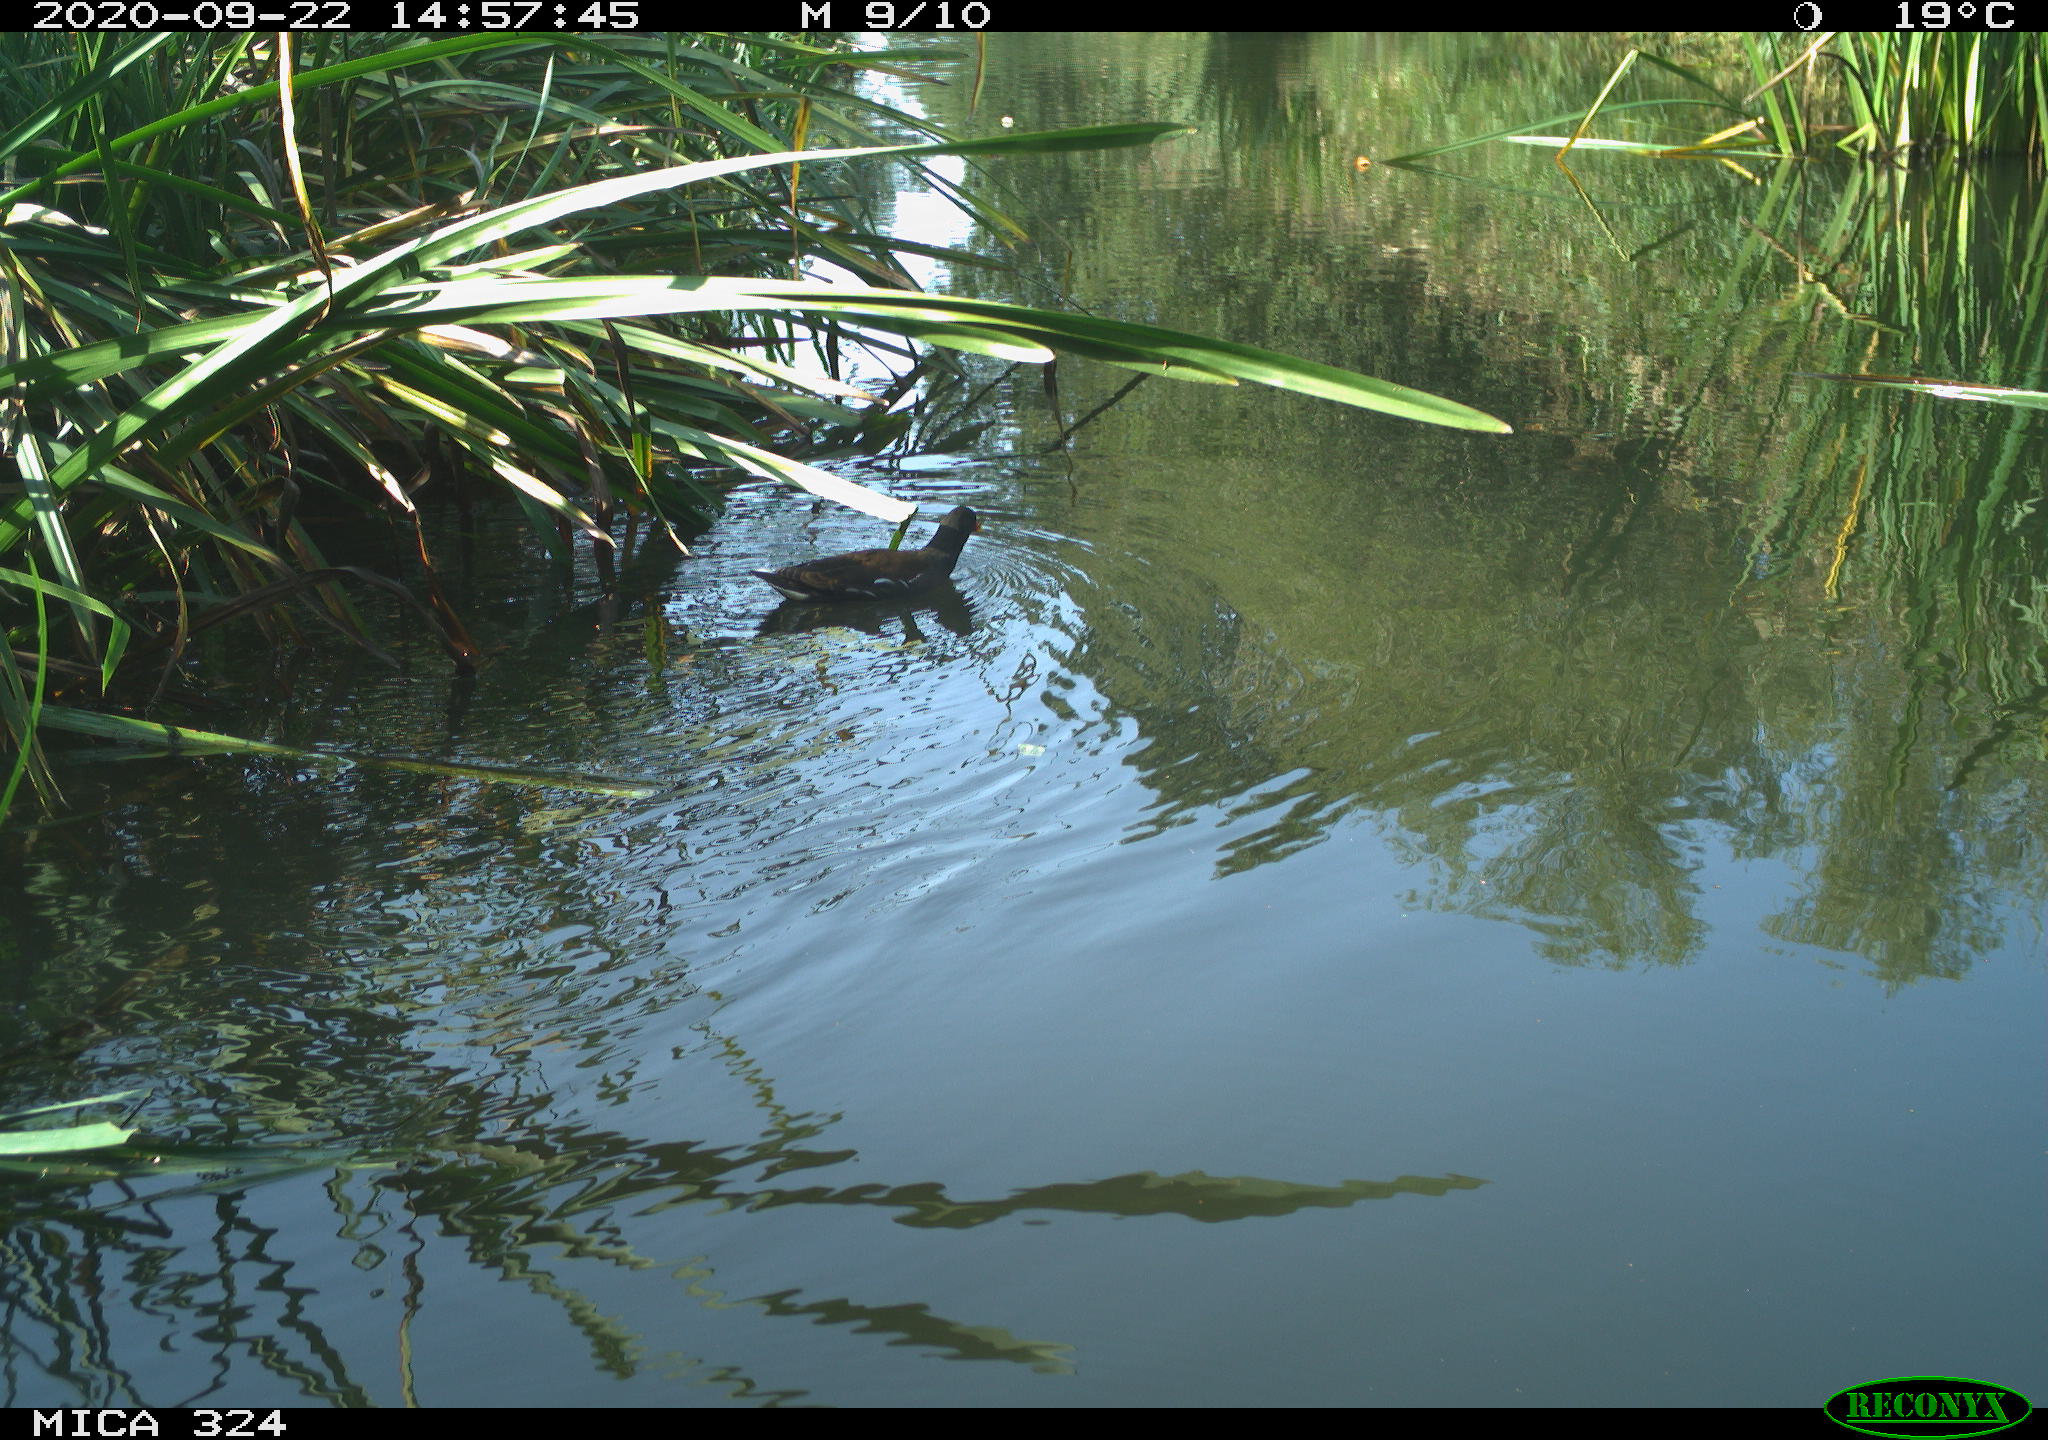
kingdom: Animalia
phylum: Chordata
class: Aves
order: Gruiformes
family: Rallidae
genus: Gallinula
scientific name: Gallinula chloropus
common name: Common moorhen
